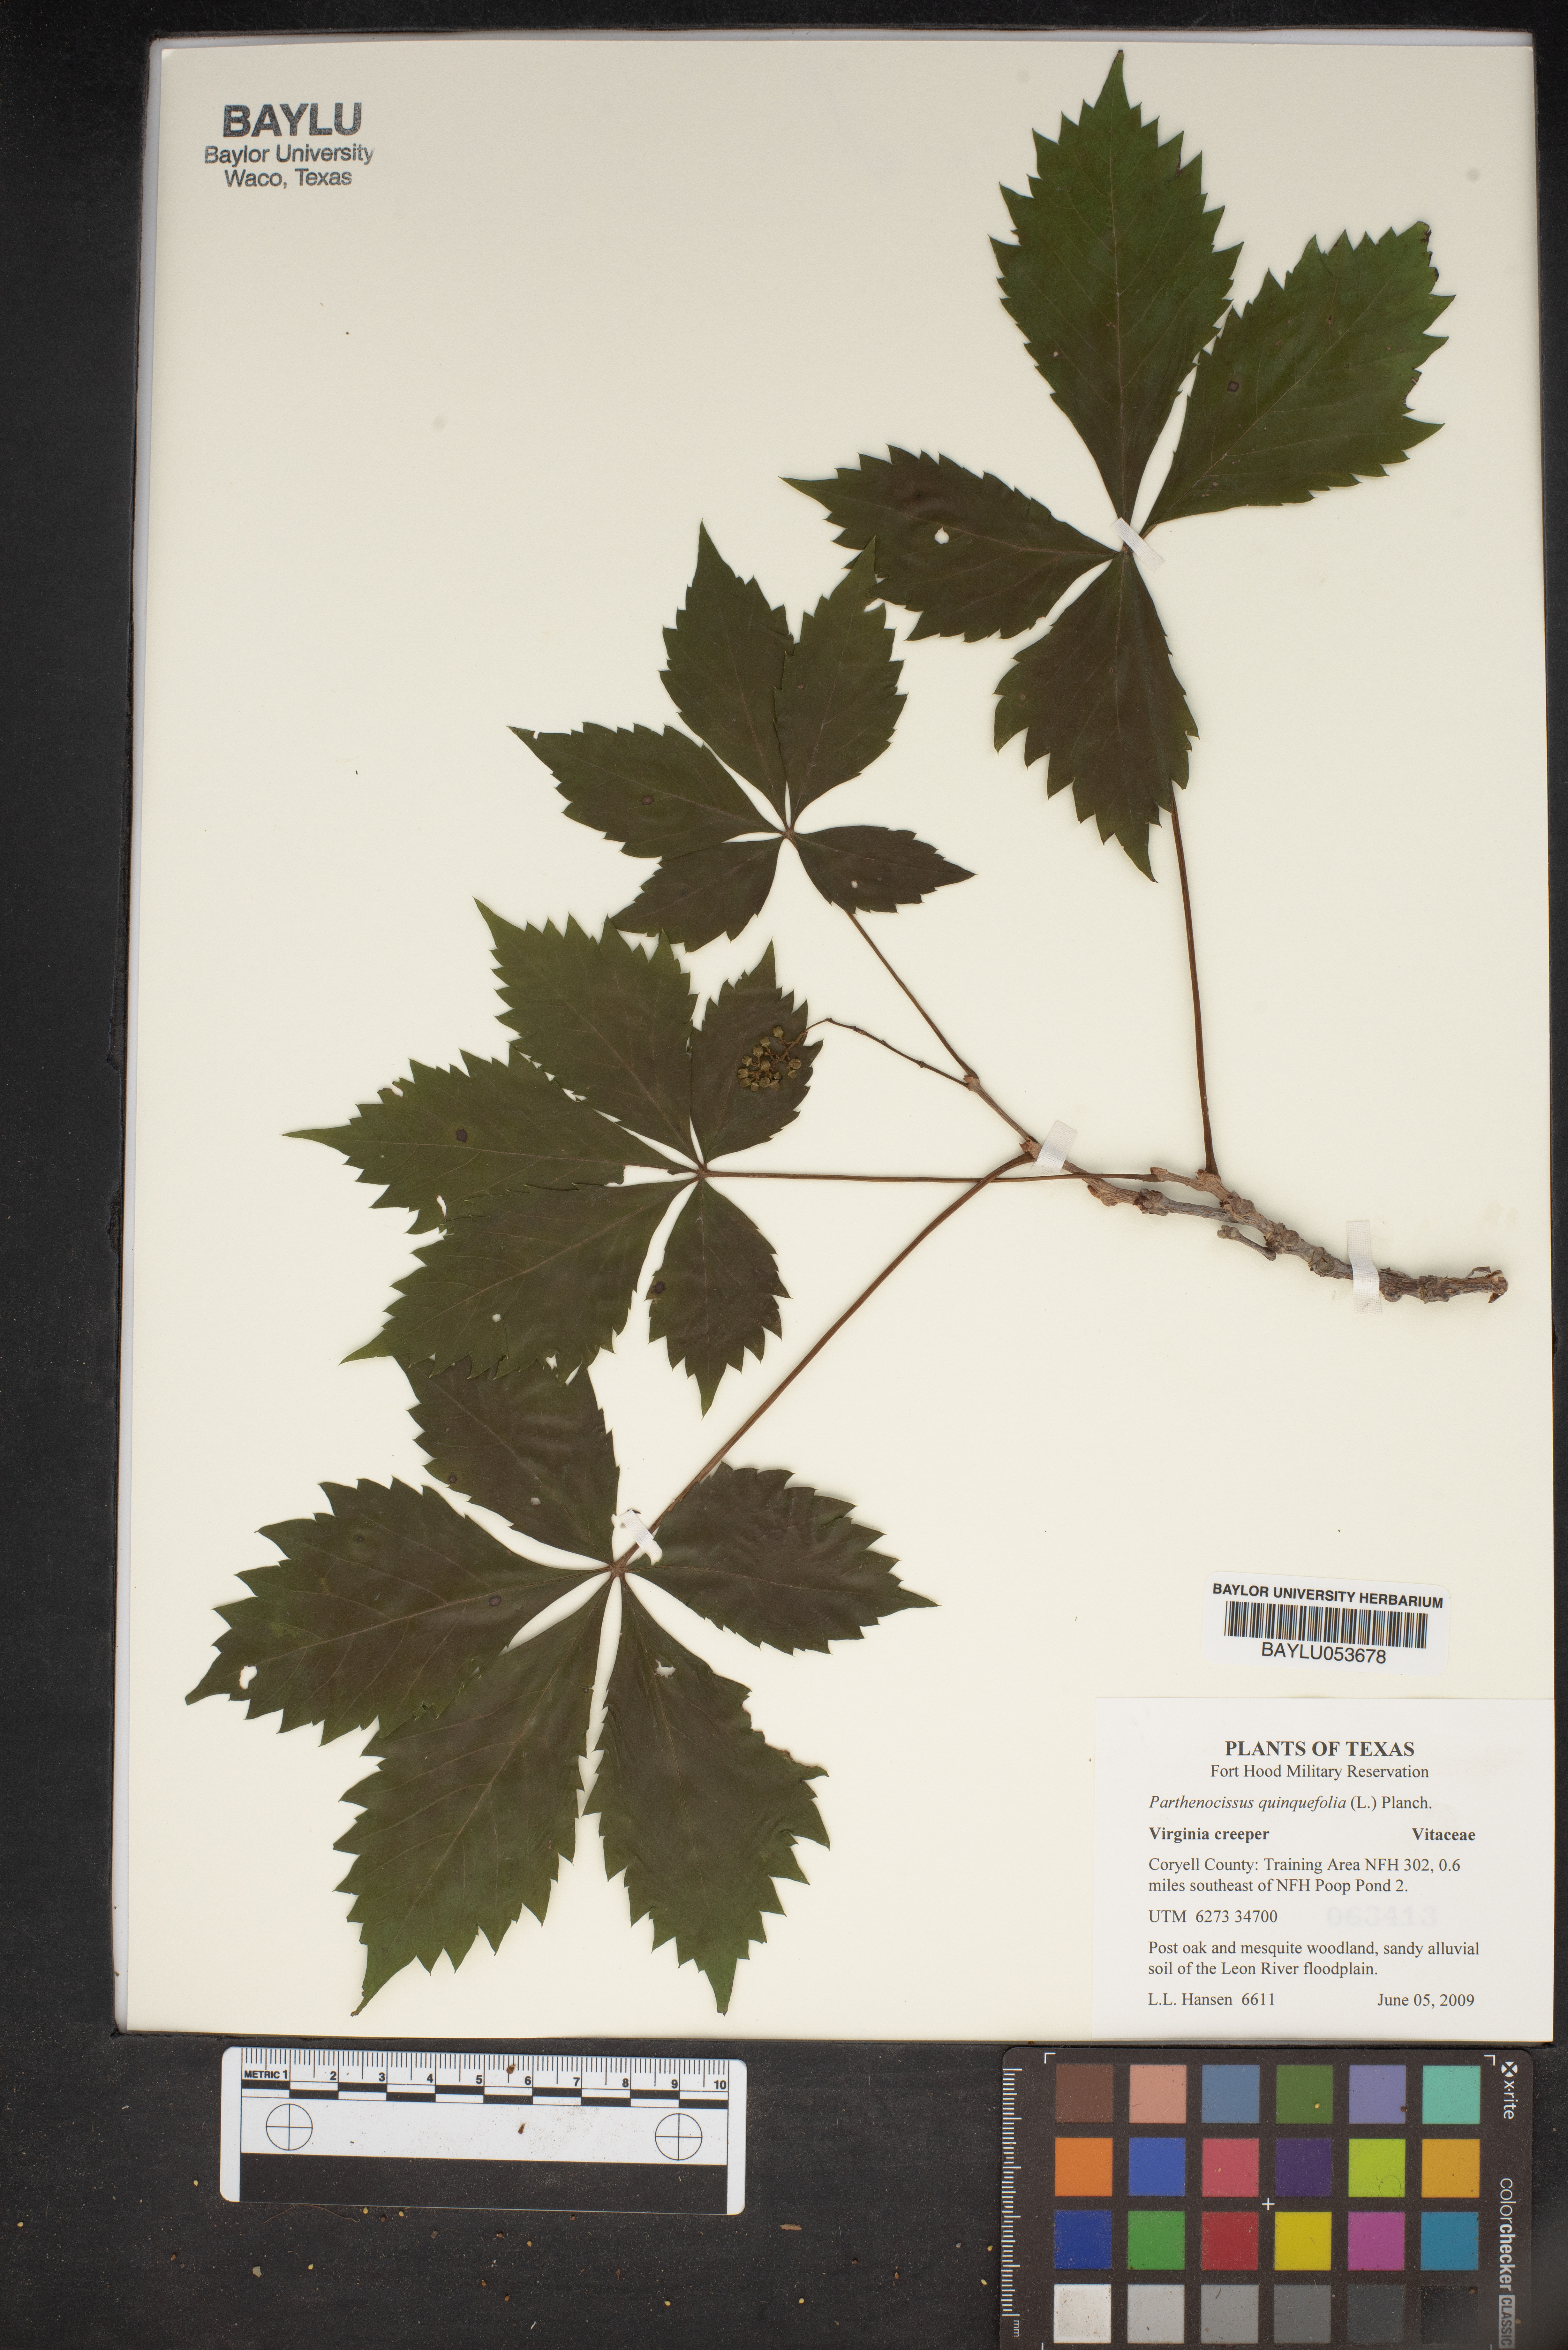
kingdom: Plantae
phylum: Tracheophyta
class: Magnoliopsida
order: Vitales
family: Vitaceae
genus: Parthenocissus
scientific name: Parthenocissus quinquefolia
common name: Virginia-creeper
